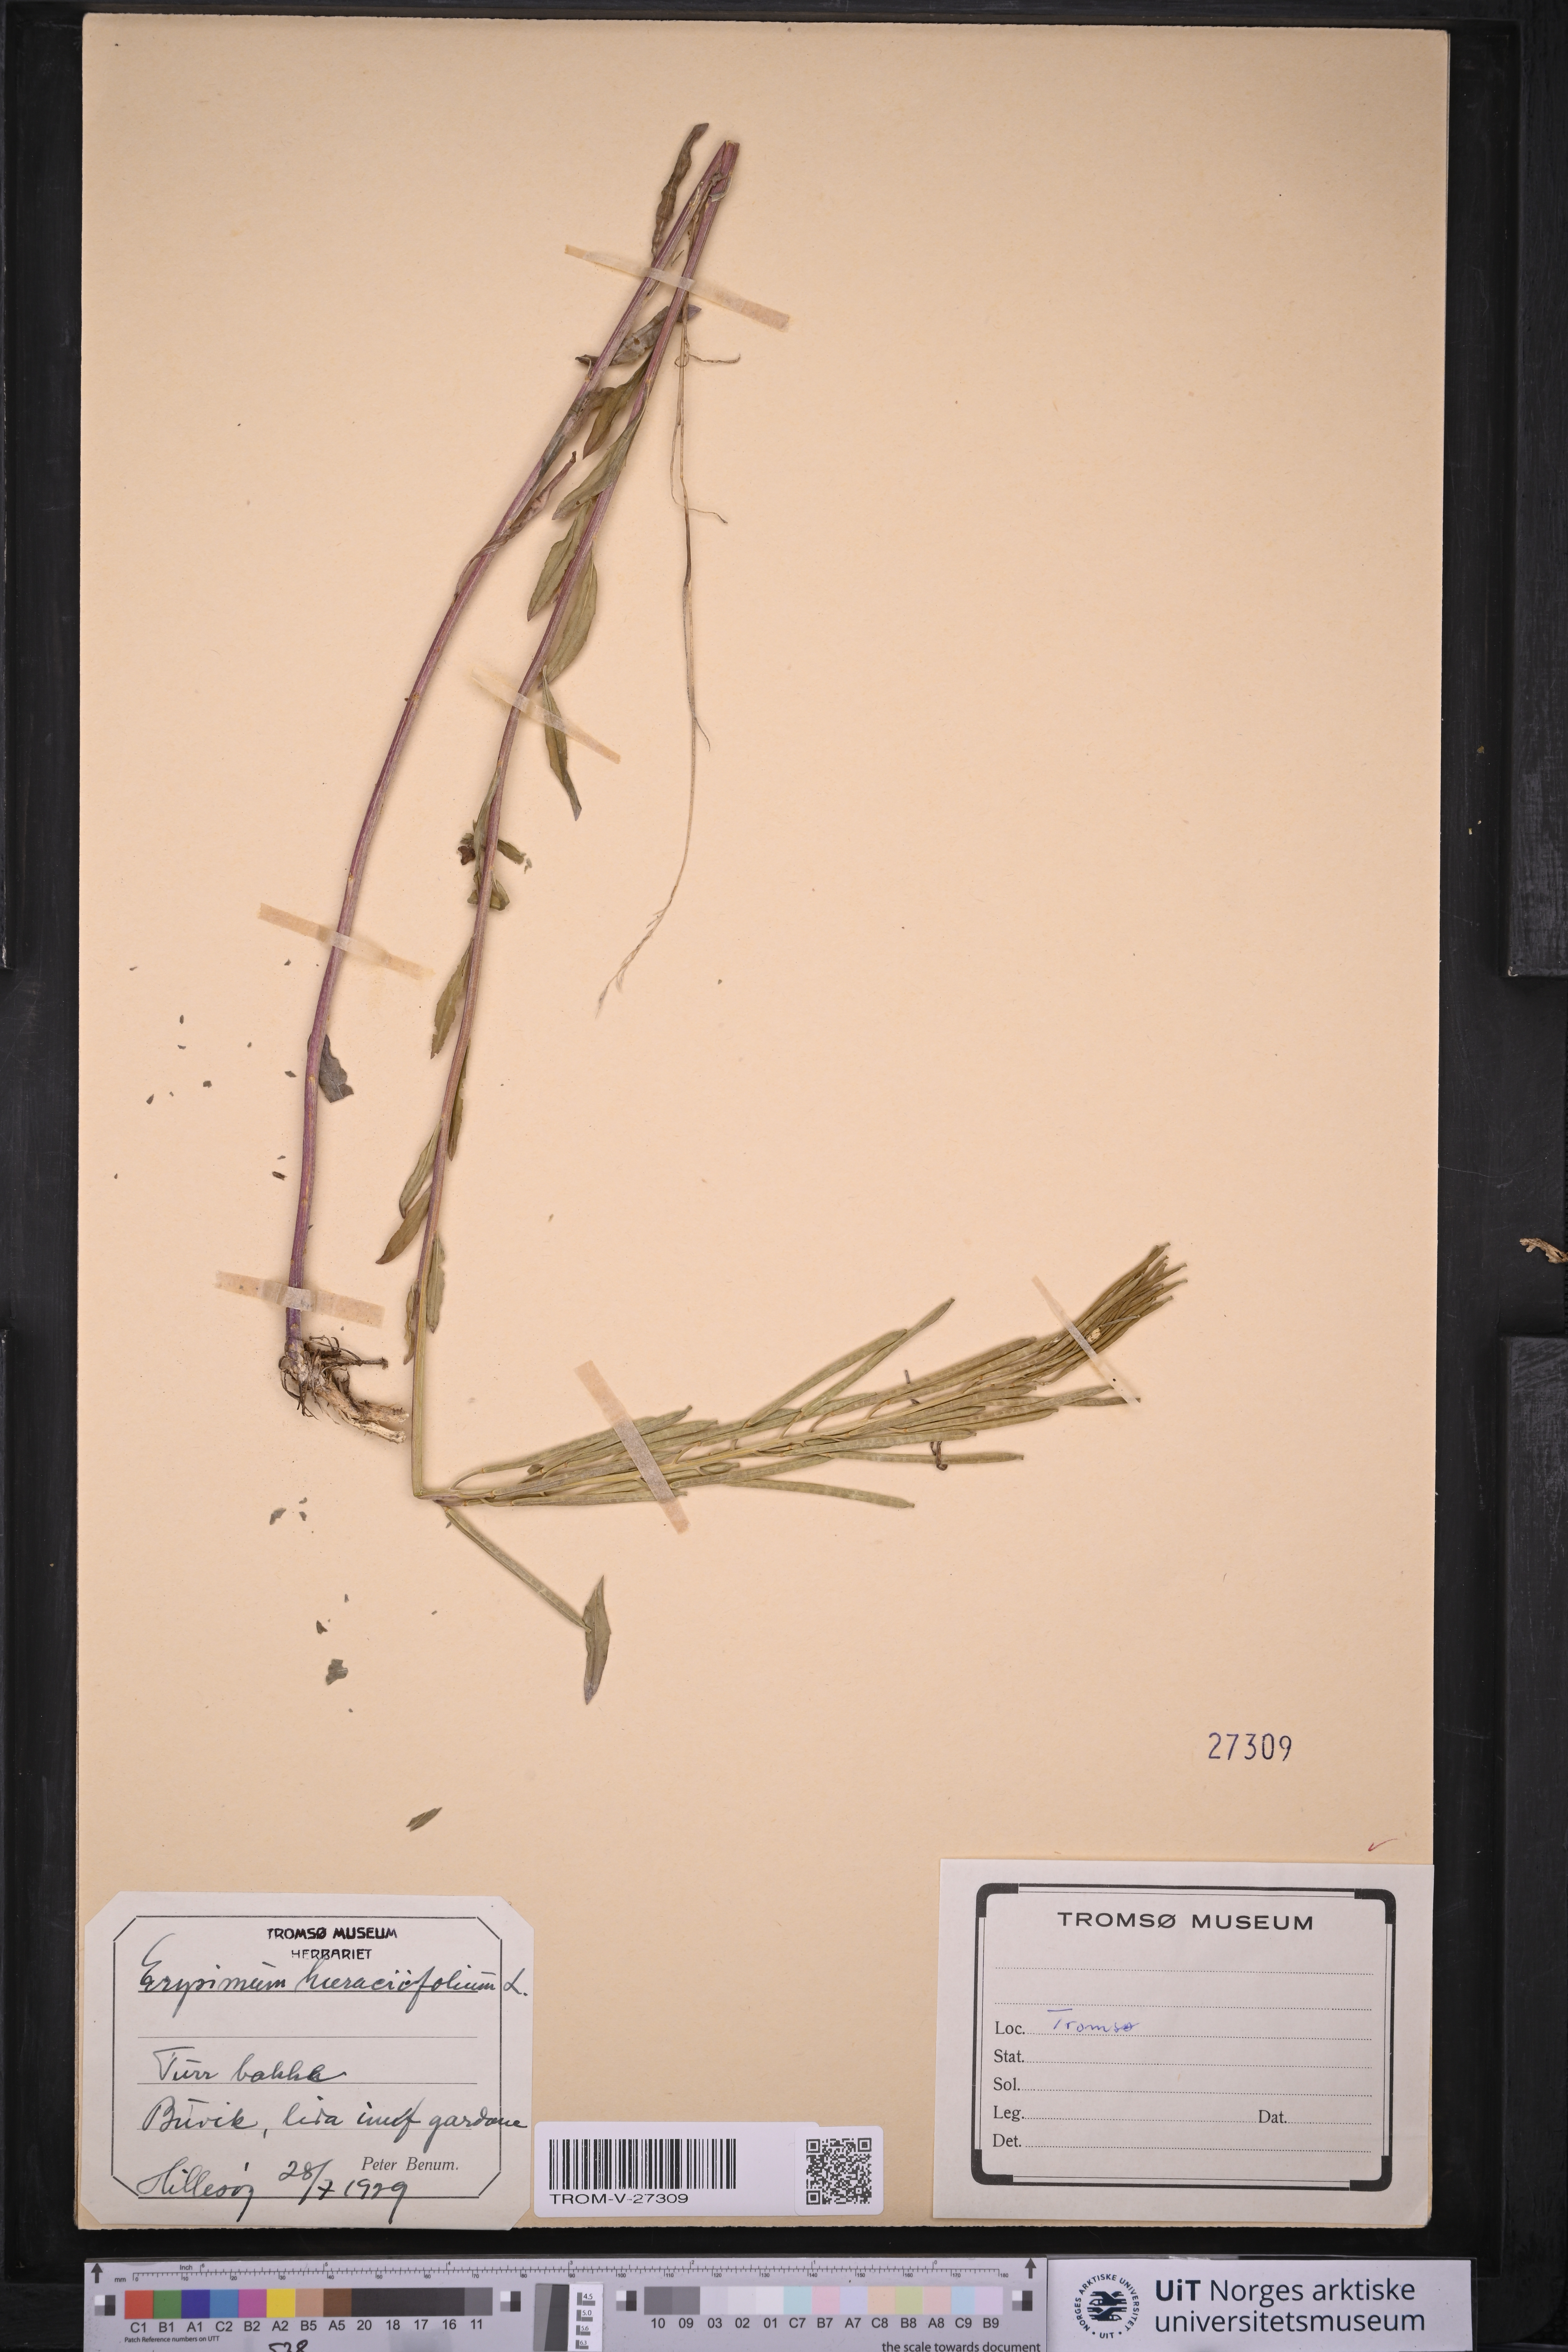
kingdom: Plantae
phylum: Tracheophyta
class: Magnoliopsida
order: Brassicales
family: Brassicaceae
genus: Erysimum
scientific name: Erysimum virgatum
